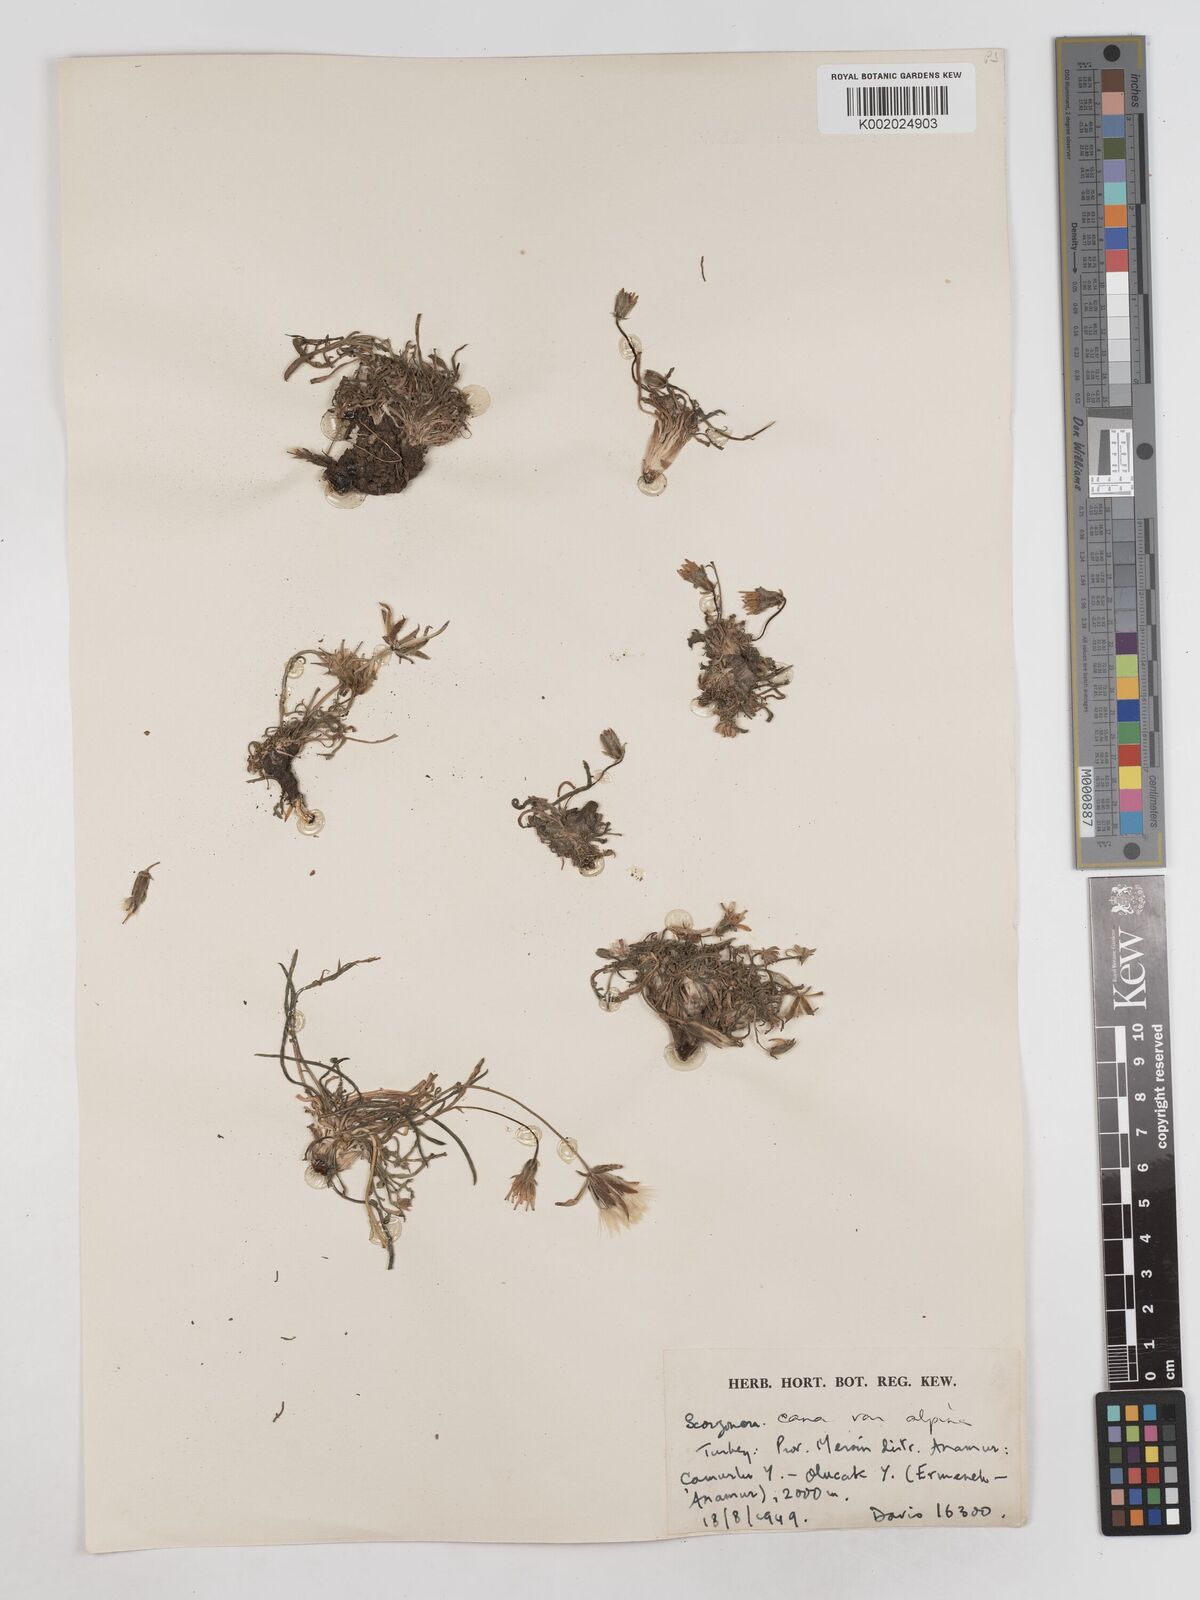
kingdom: Plantae
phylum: Tracheophyta
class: Magnoliopsida
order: Asterales
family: Asteraceae
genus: Scorzonera
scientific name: Scorzonera alpigena
